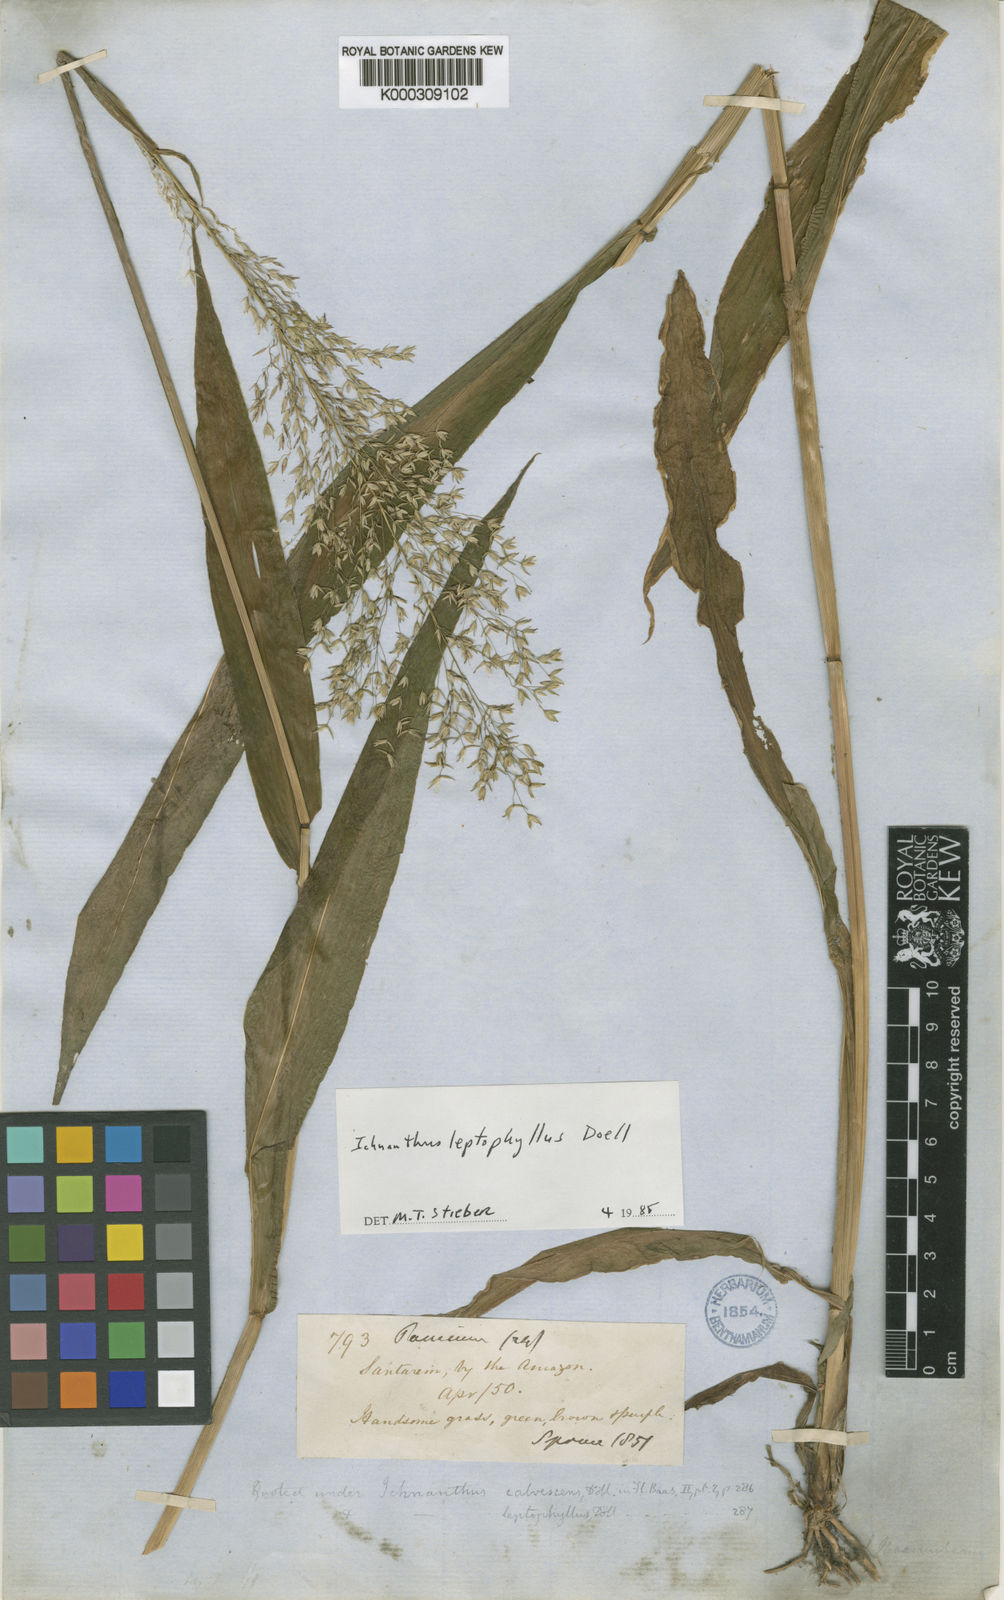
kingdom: Plantae
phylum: Tracheophyta
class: Liliopsida
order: Poales
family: Poaceae
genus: Ichnanthus
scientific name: Ichnanthus
